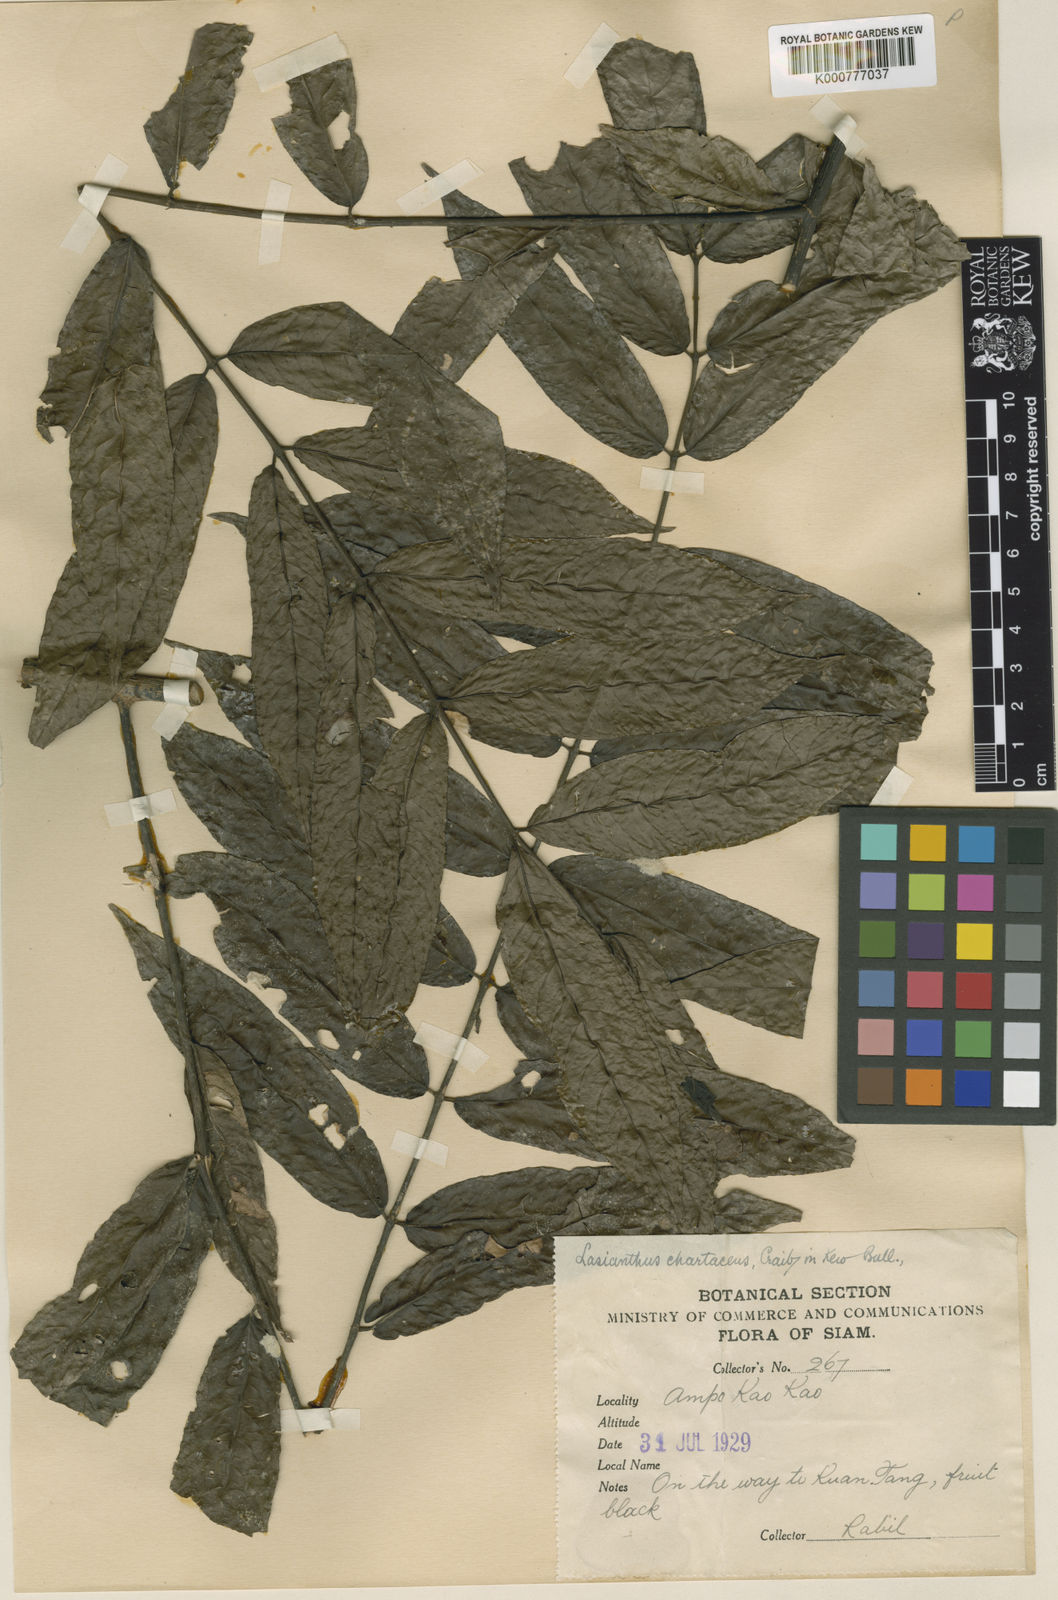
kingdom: Plantae
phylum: Tracheophyta
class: Magnoliopsida
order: Gentianales
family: Rubiaceae
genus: Lasianthus
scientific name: Lasianthus chartaceus
